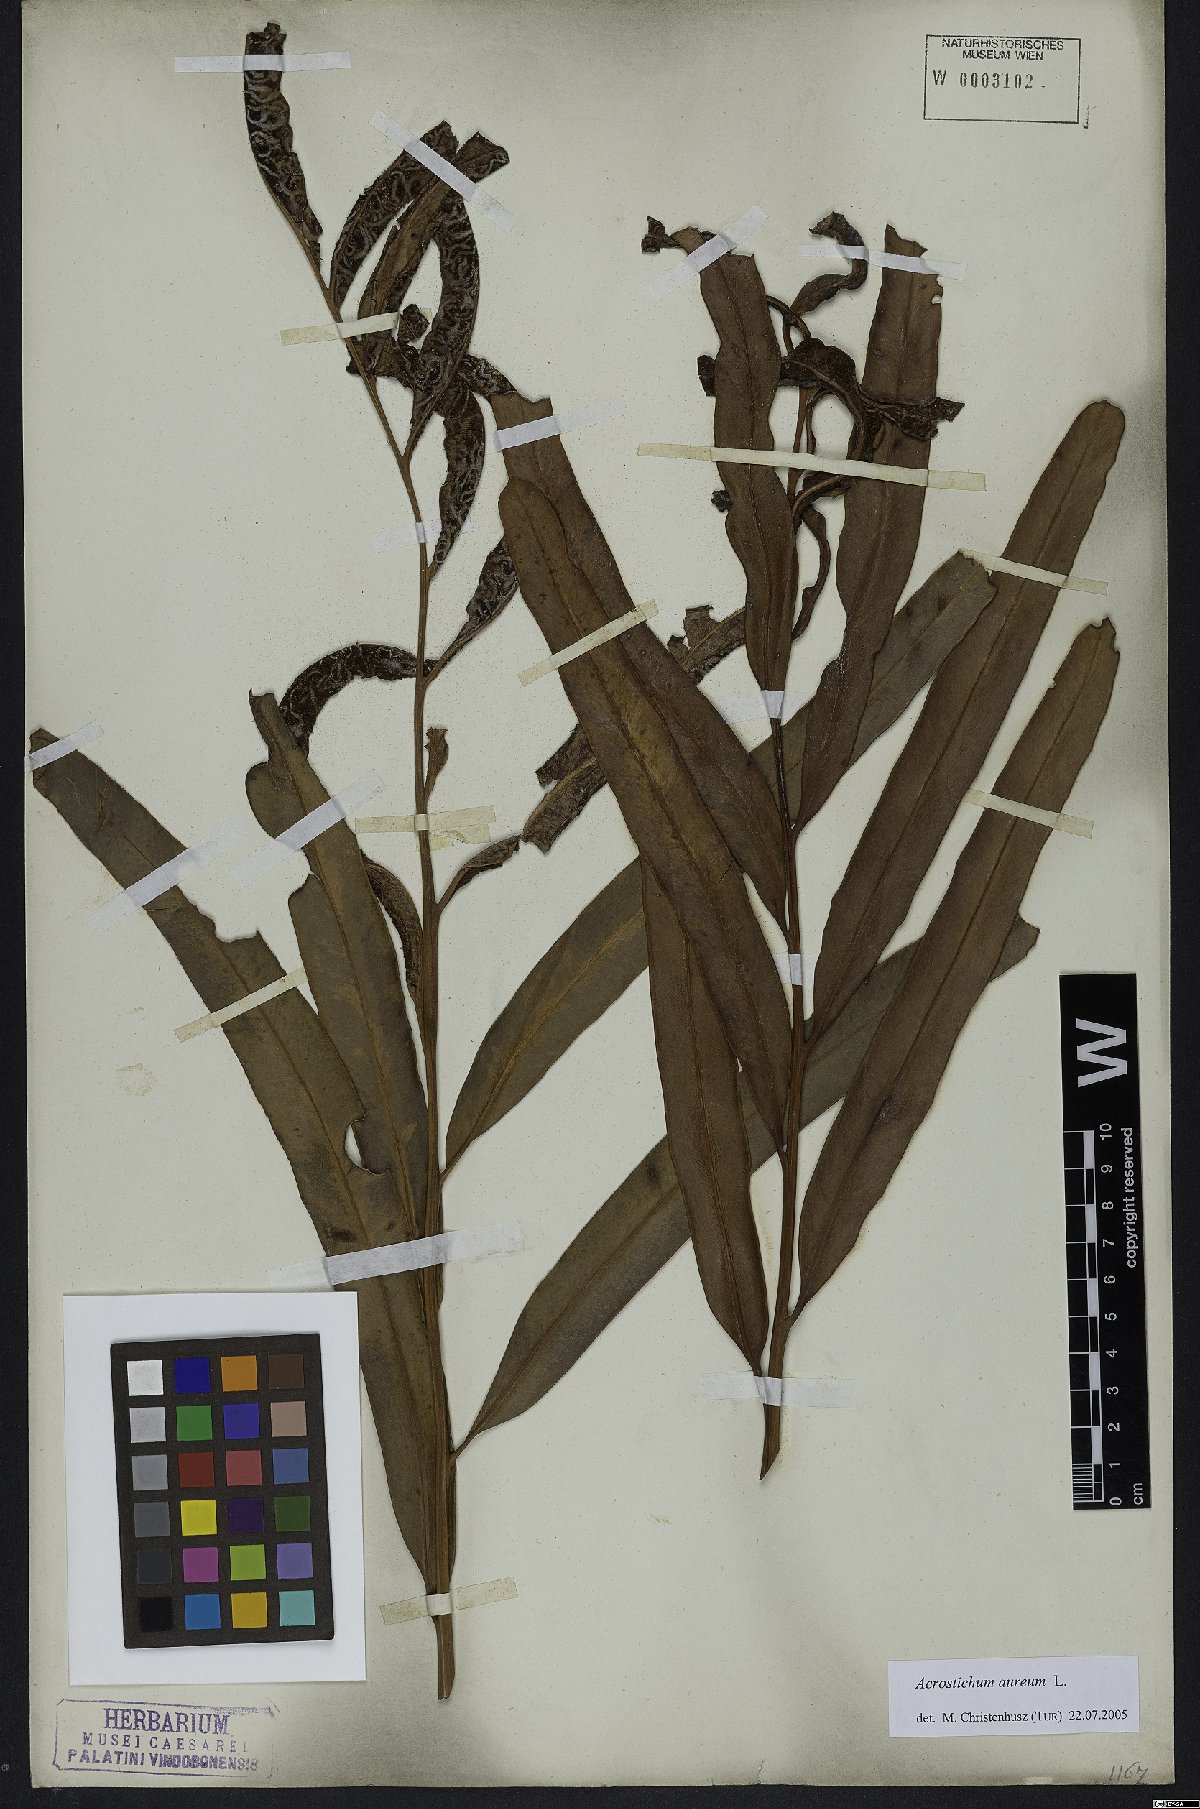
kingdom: Plantae
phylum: Tracheophyta
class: Polypodiopsida
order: Polypodiales
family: Pteridaceae
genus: Acrostichum
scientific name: Acrostichum aureum
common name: Leather fern
